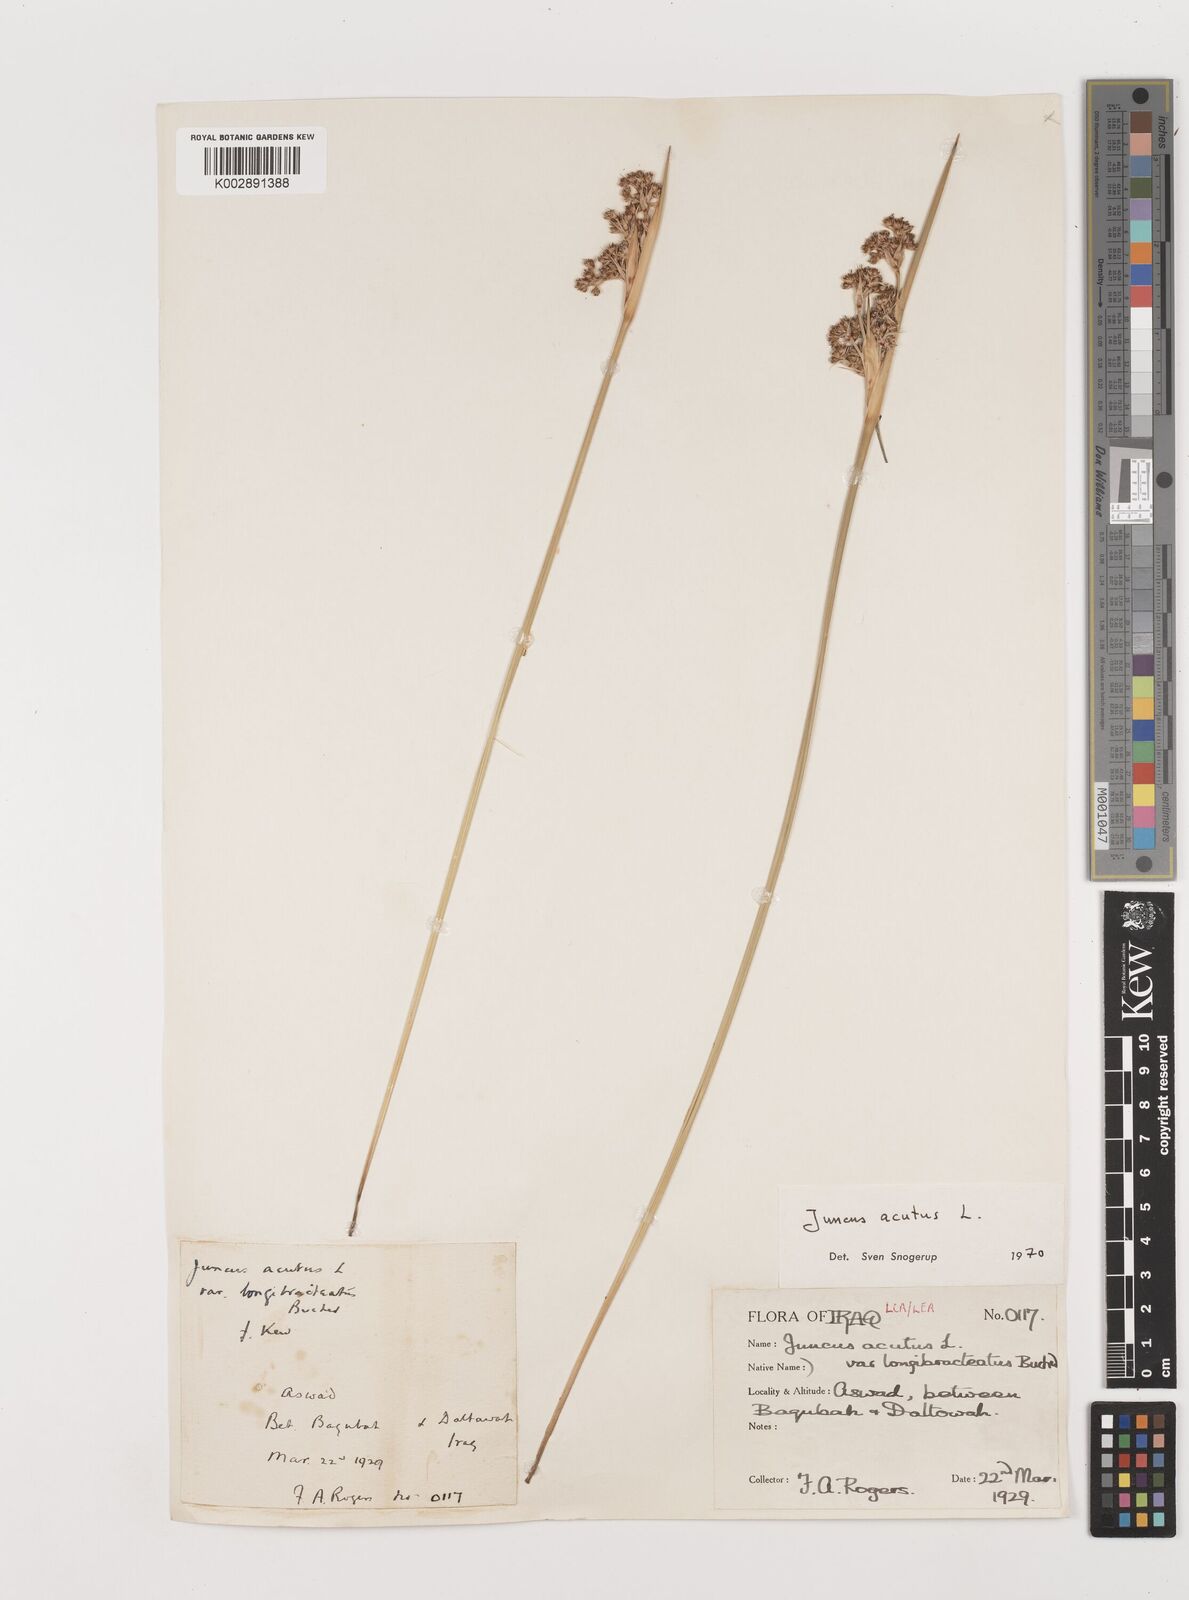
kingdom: Plantae
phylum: Tracheophyta
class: Liliopsida
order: Poales
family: Juncaceae
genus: Juncus
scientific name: Juncus acutus
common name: Sharp rush
